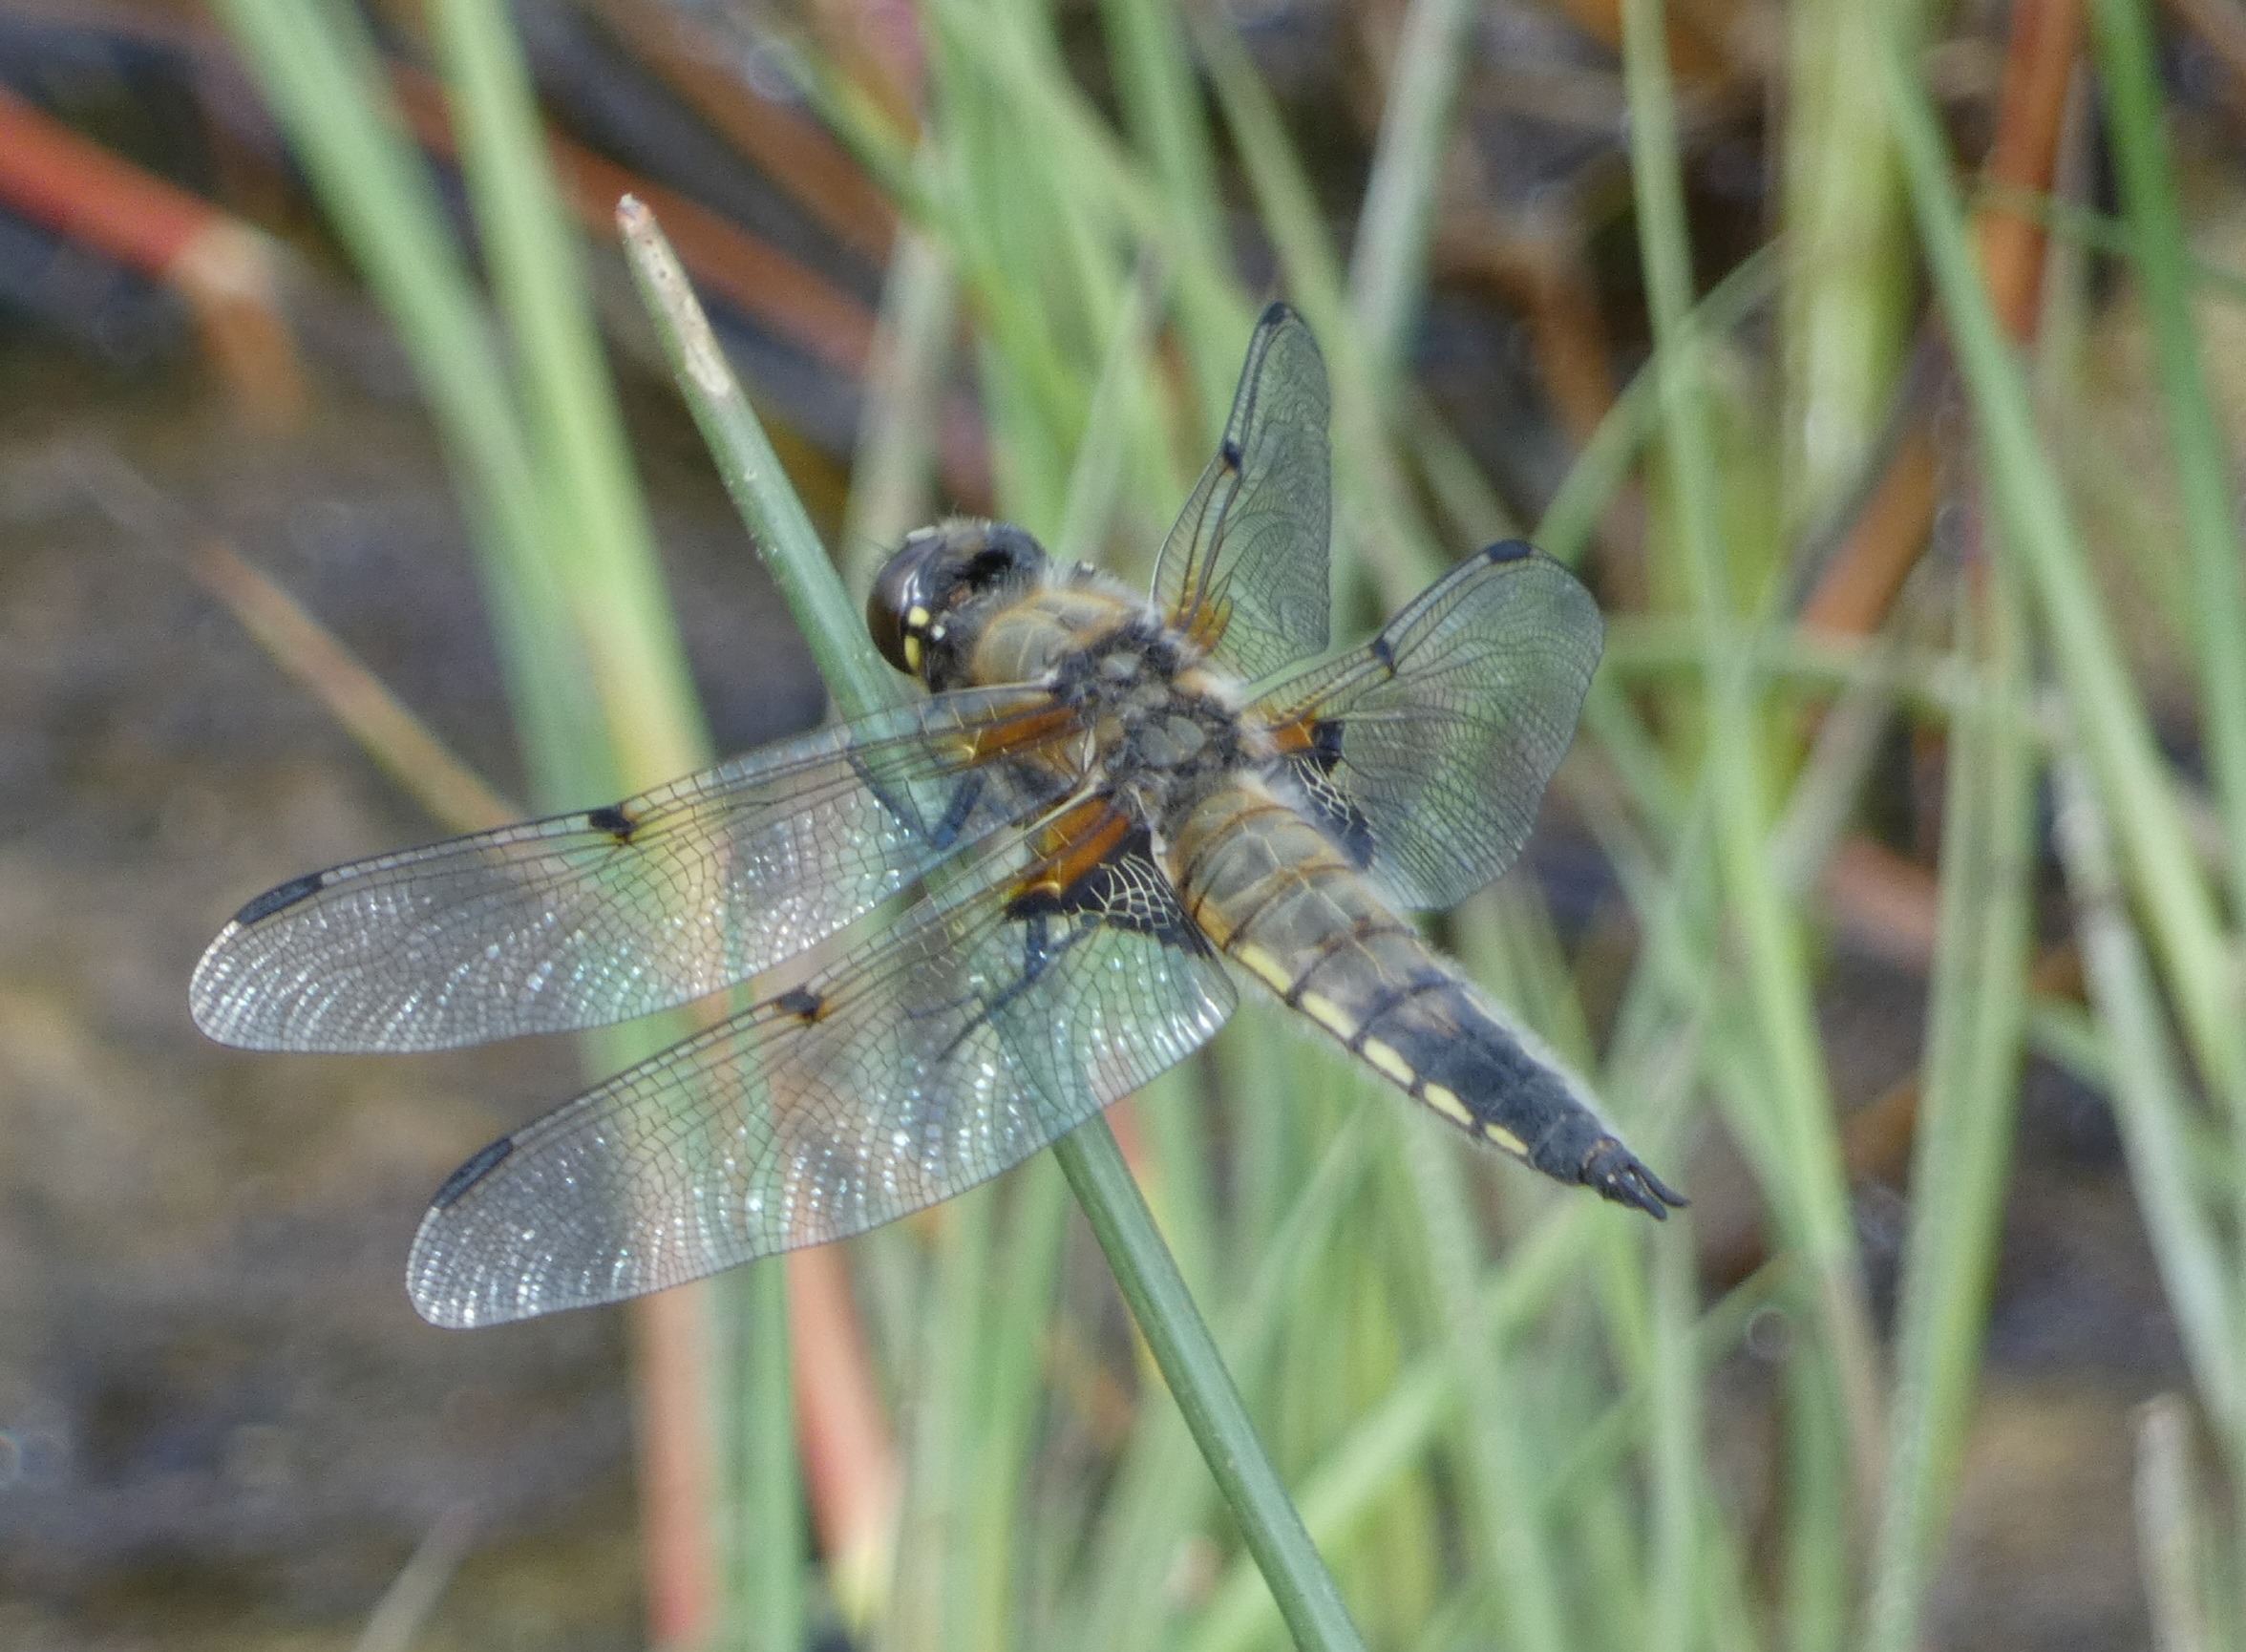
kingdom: Animalia
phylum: Arthropoda
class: Insecta
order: Odonata
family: Libellulidae
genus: Libellula
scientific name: Libellula quadrimaculata
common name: Fireplettet libel
